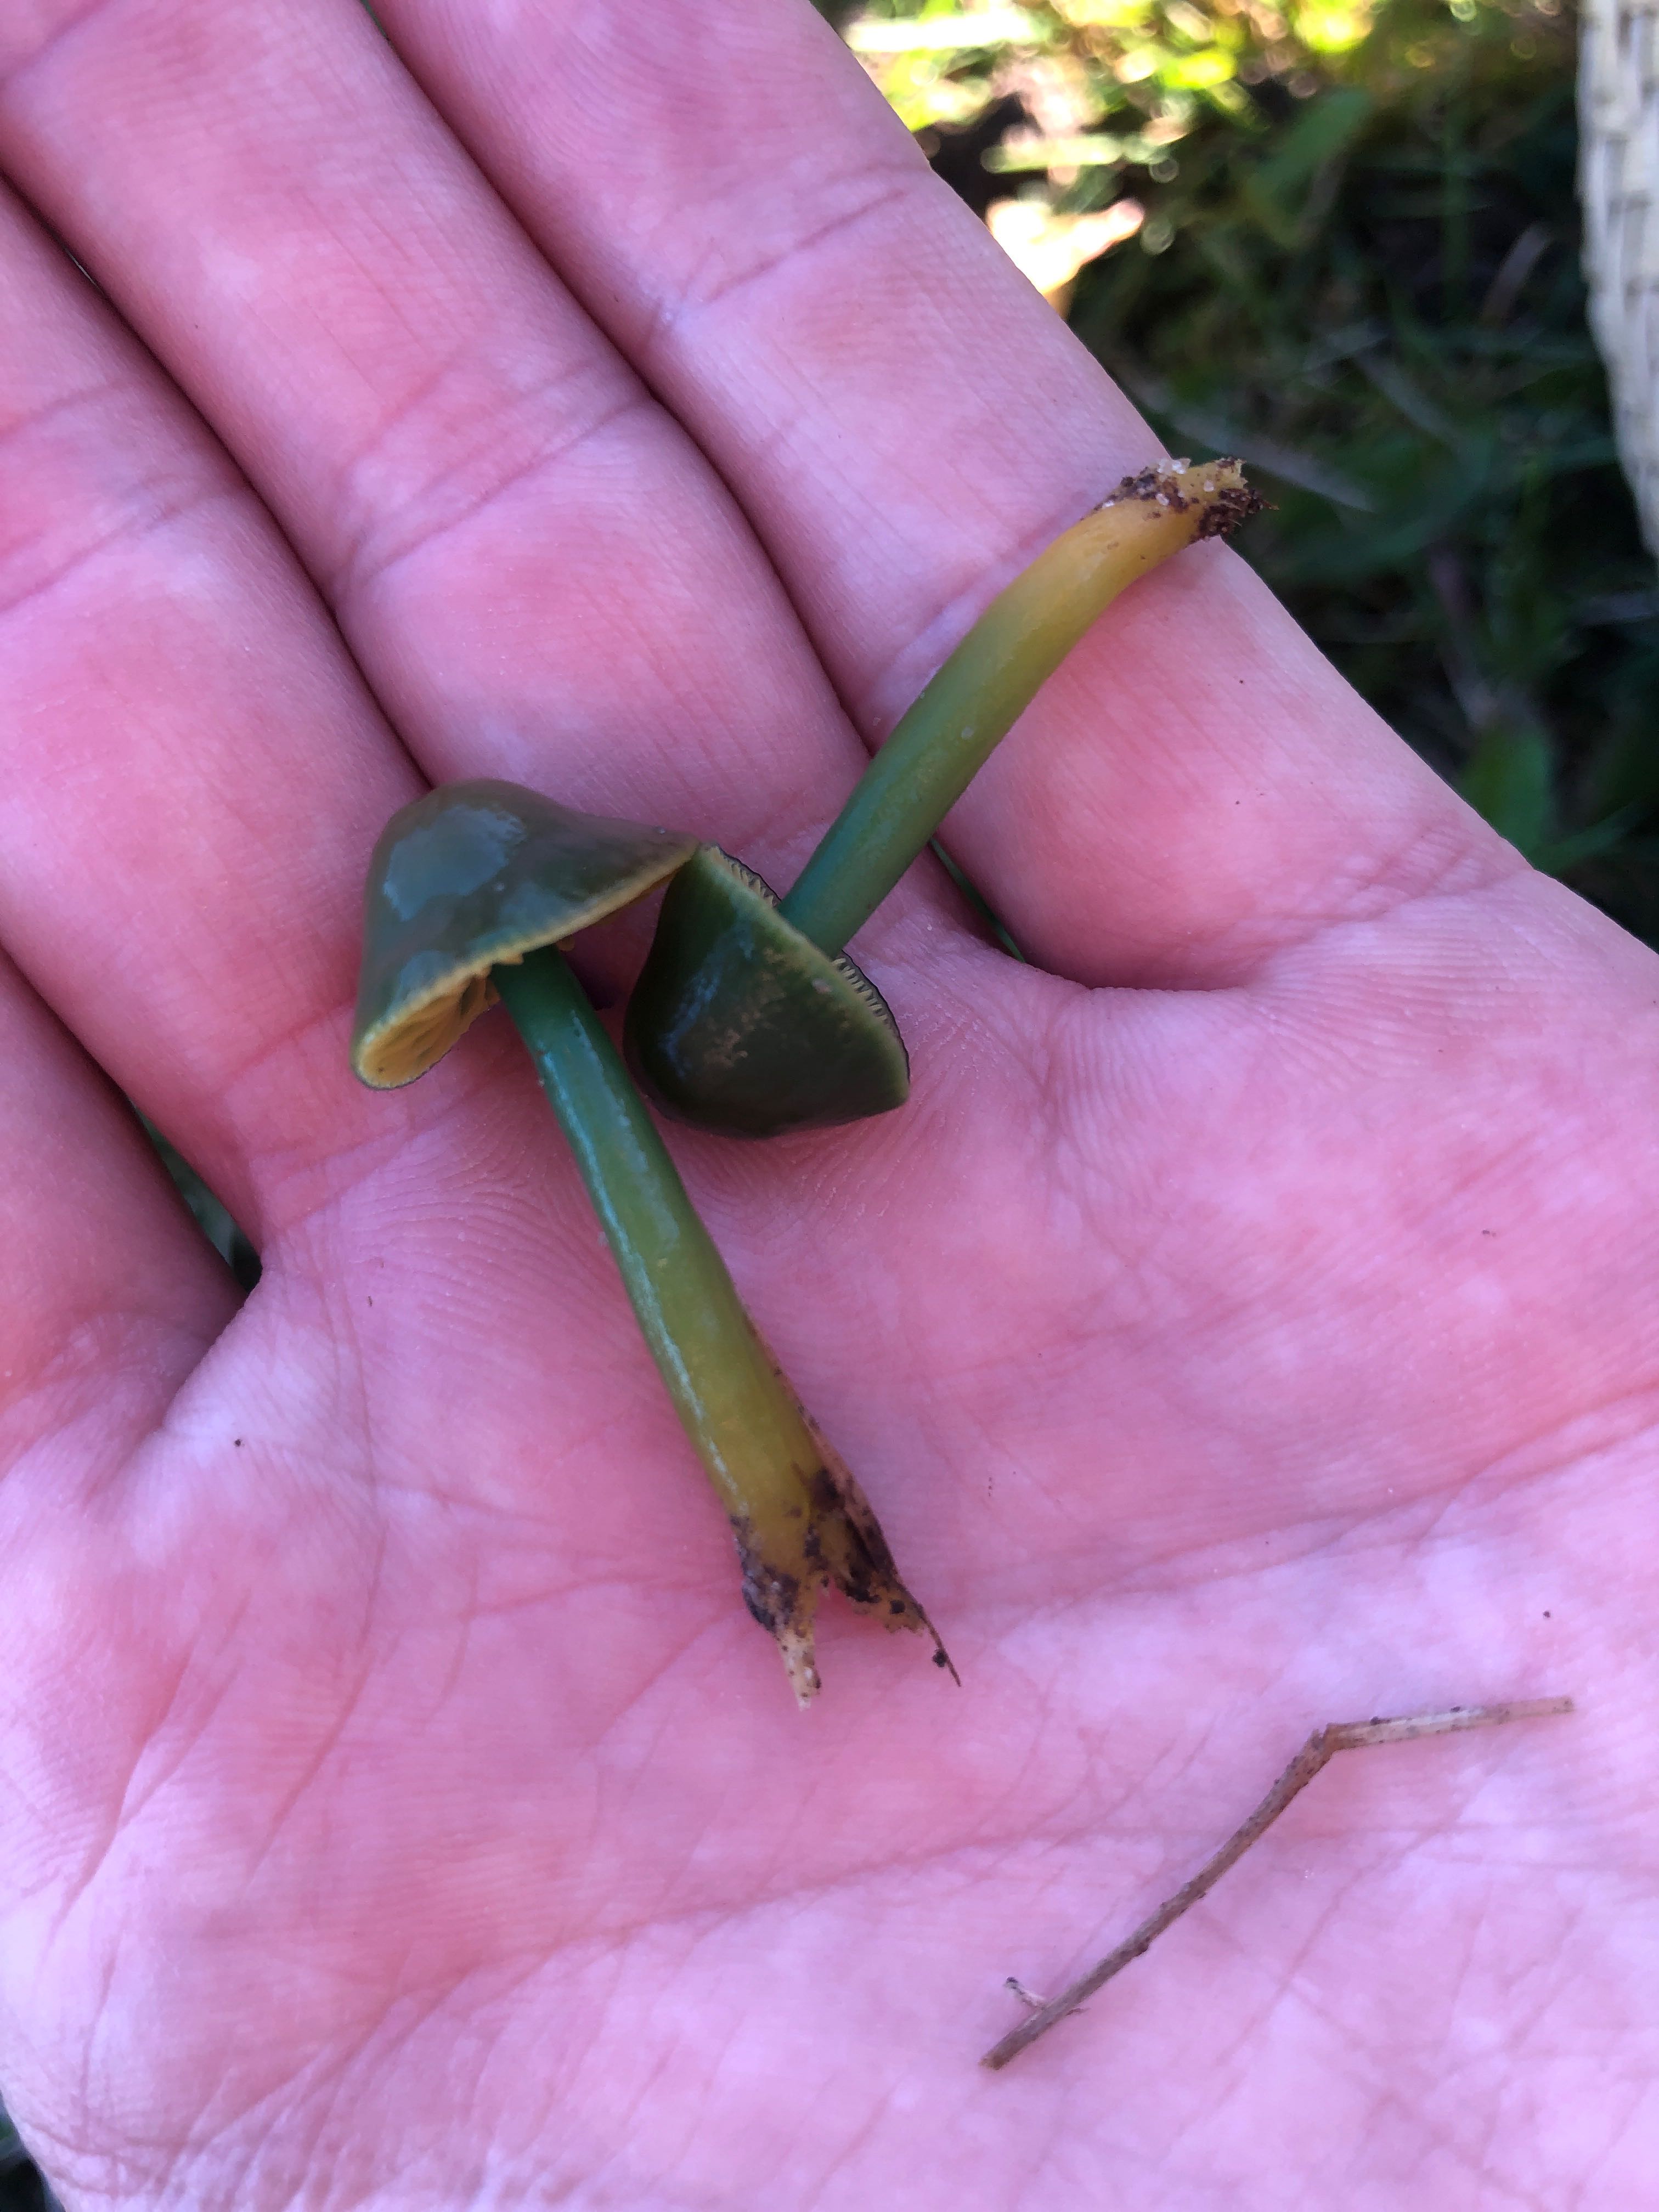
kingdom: Fungi
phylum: Basidiomycota
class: Agaricomycetes
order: Agaricales
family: Hygrophoraceae
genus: Gliophorus
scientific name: Gliophorus psittacinus
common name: papegøje-vokshat
